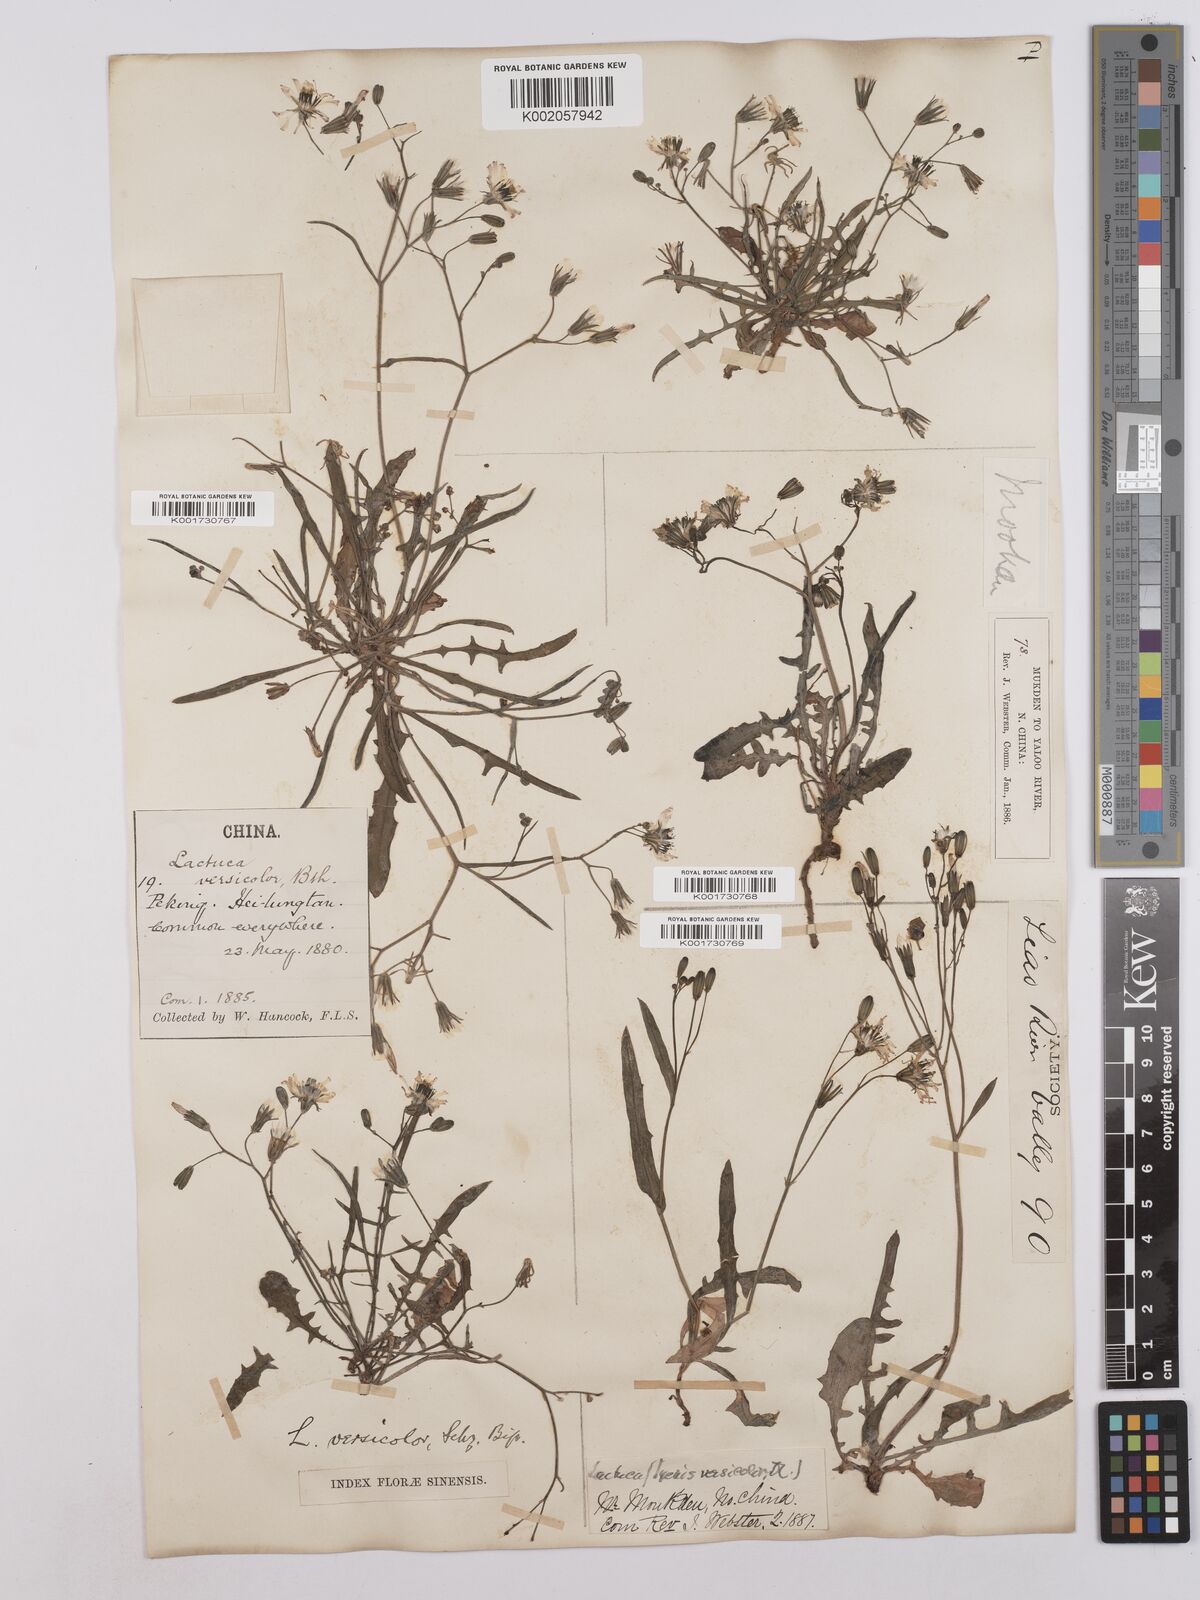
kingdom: Plantae
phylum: Tracheophyta
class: Magnoliopsida
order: Asterales
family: Asteraceae
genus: Ixeris
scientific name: Ixeris chinensis
